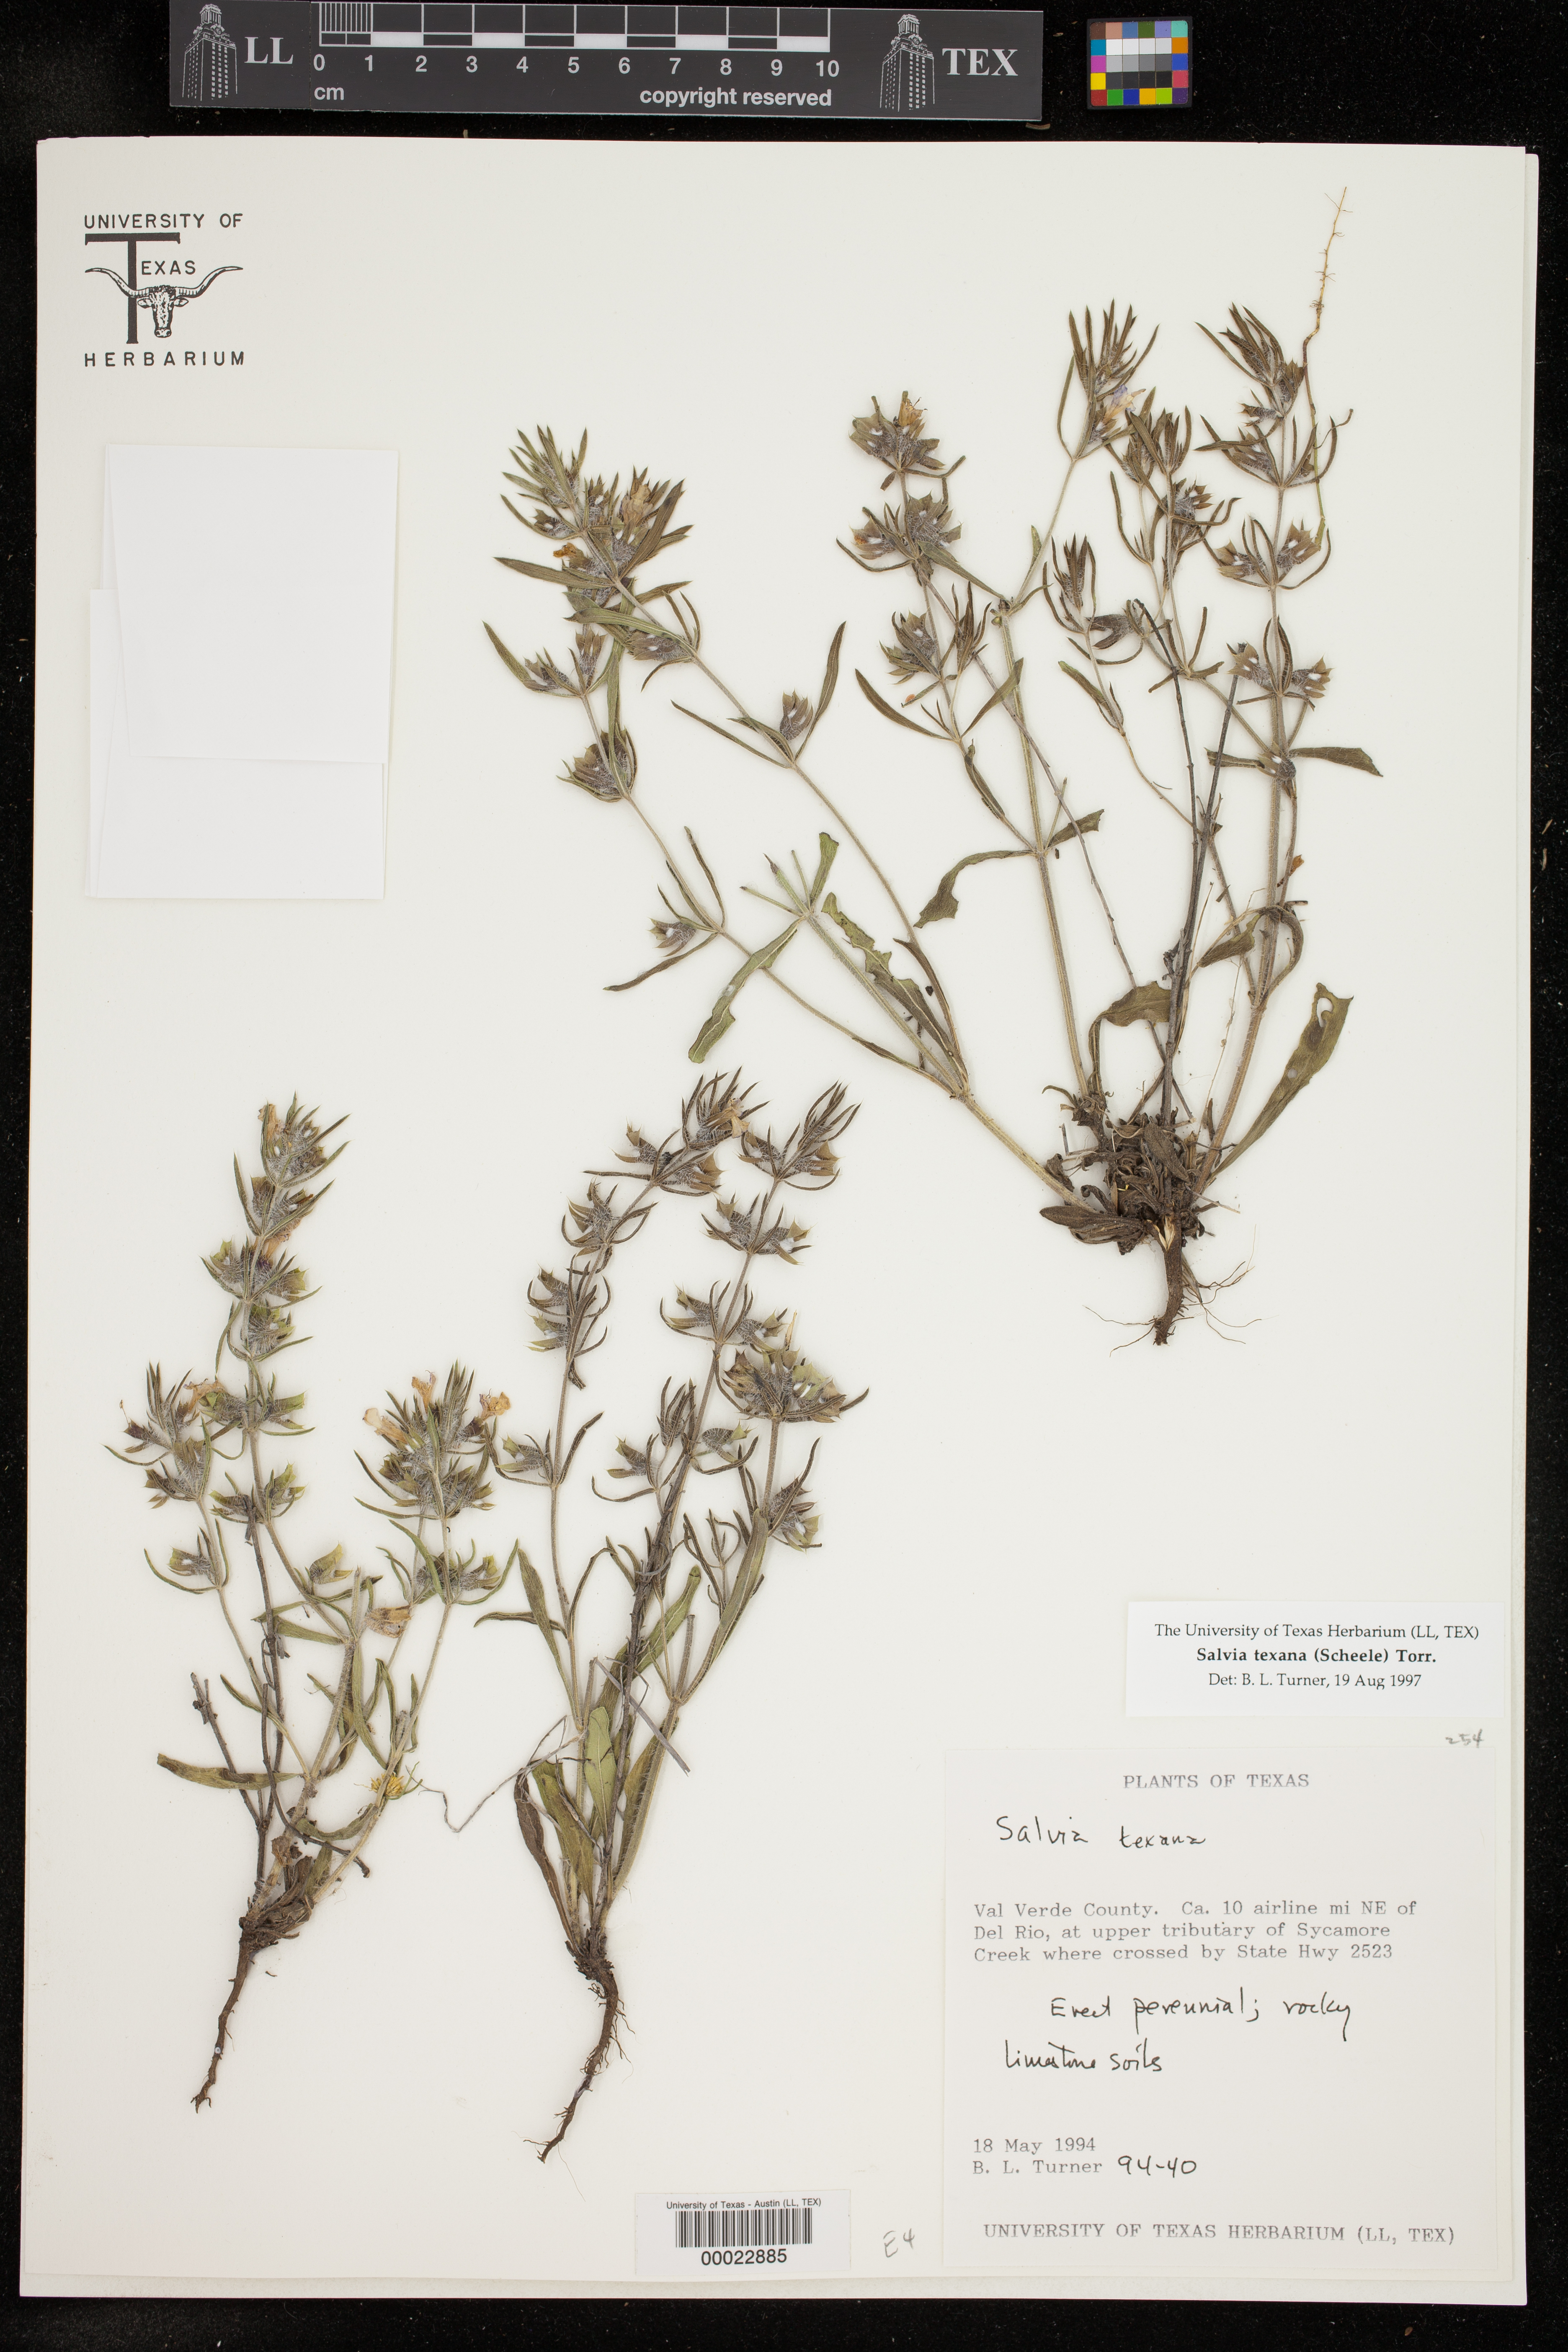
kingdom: Plantae
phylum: Tracheophyta
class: Magnoliopsida
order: Lamiales
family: Lamiaceae
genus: Salvia
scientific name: Salvia texana
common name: Texas sage
